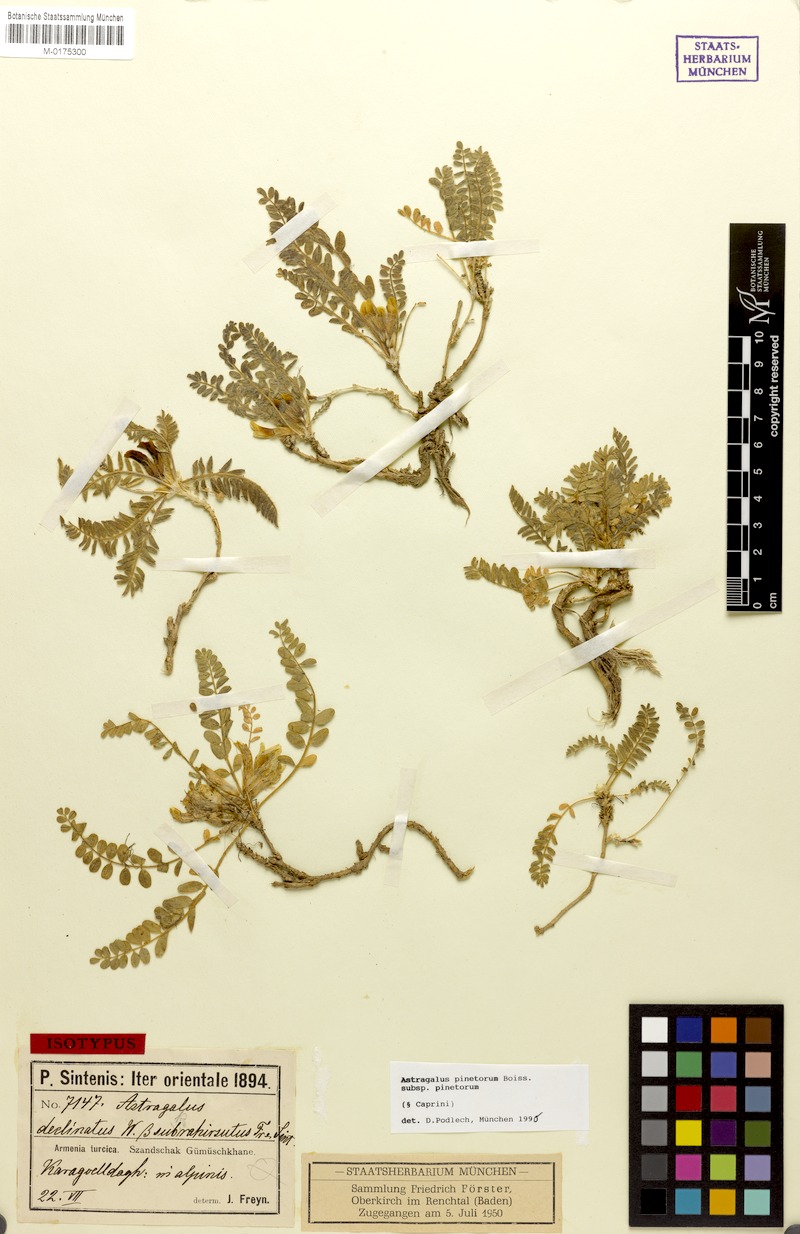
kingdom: Plantae
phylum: Tracheophyta
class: Magnoliopsida
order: Fabales
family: Fabaceae
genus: Astragalus
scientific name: Astragalus pinetorum
